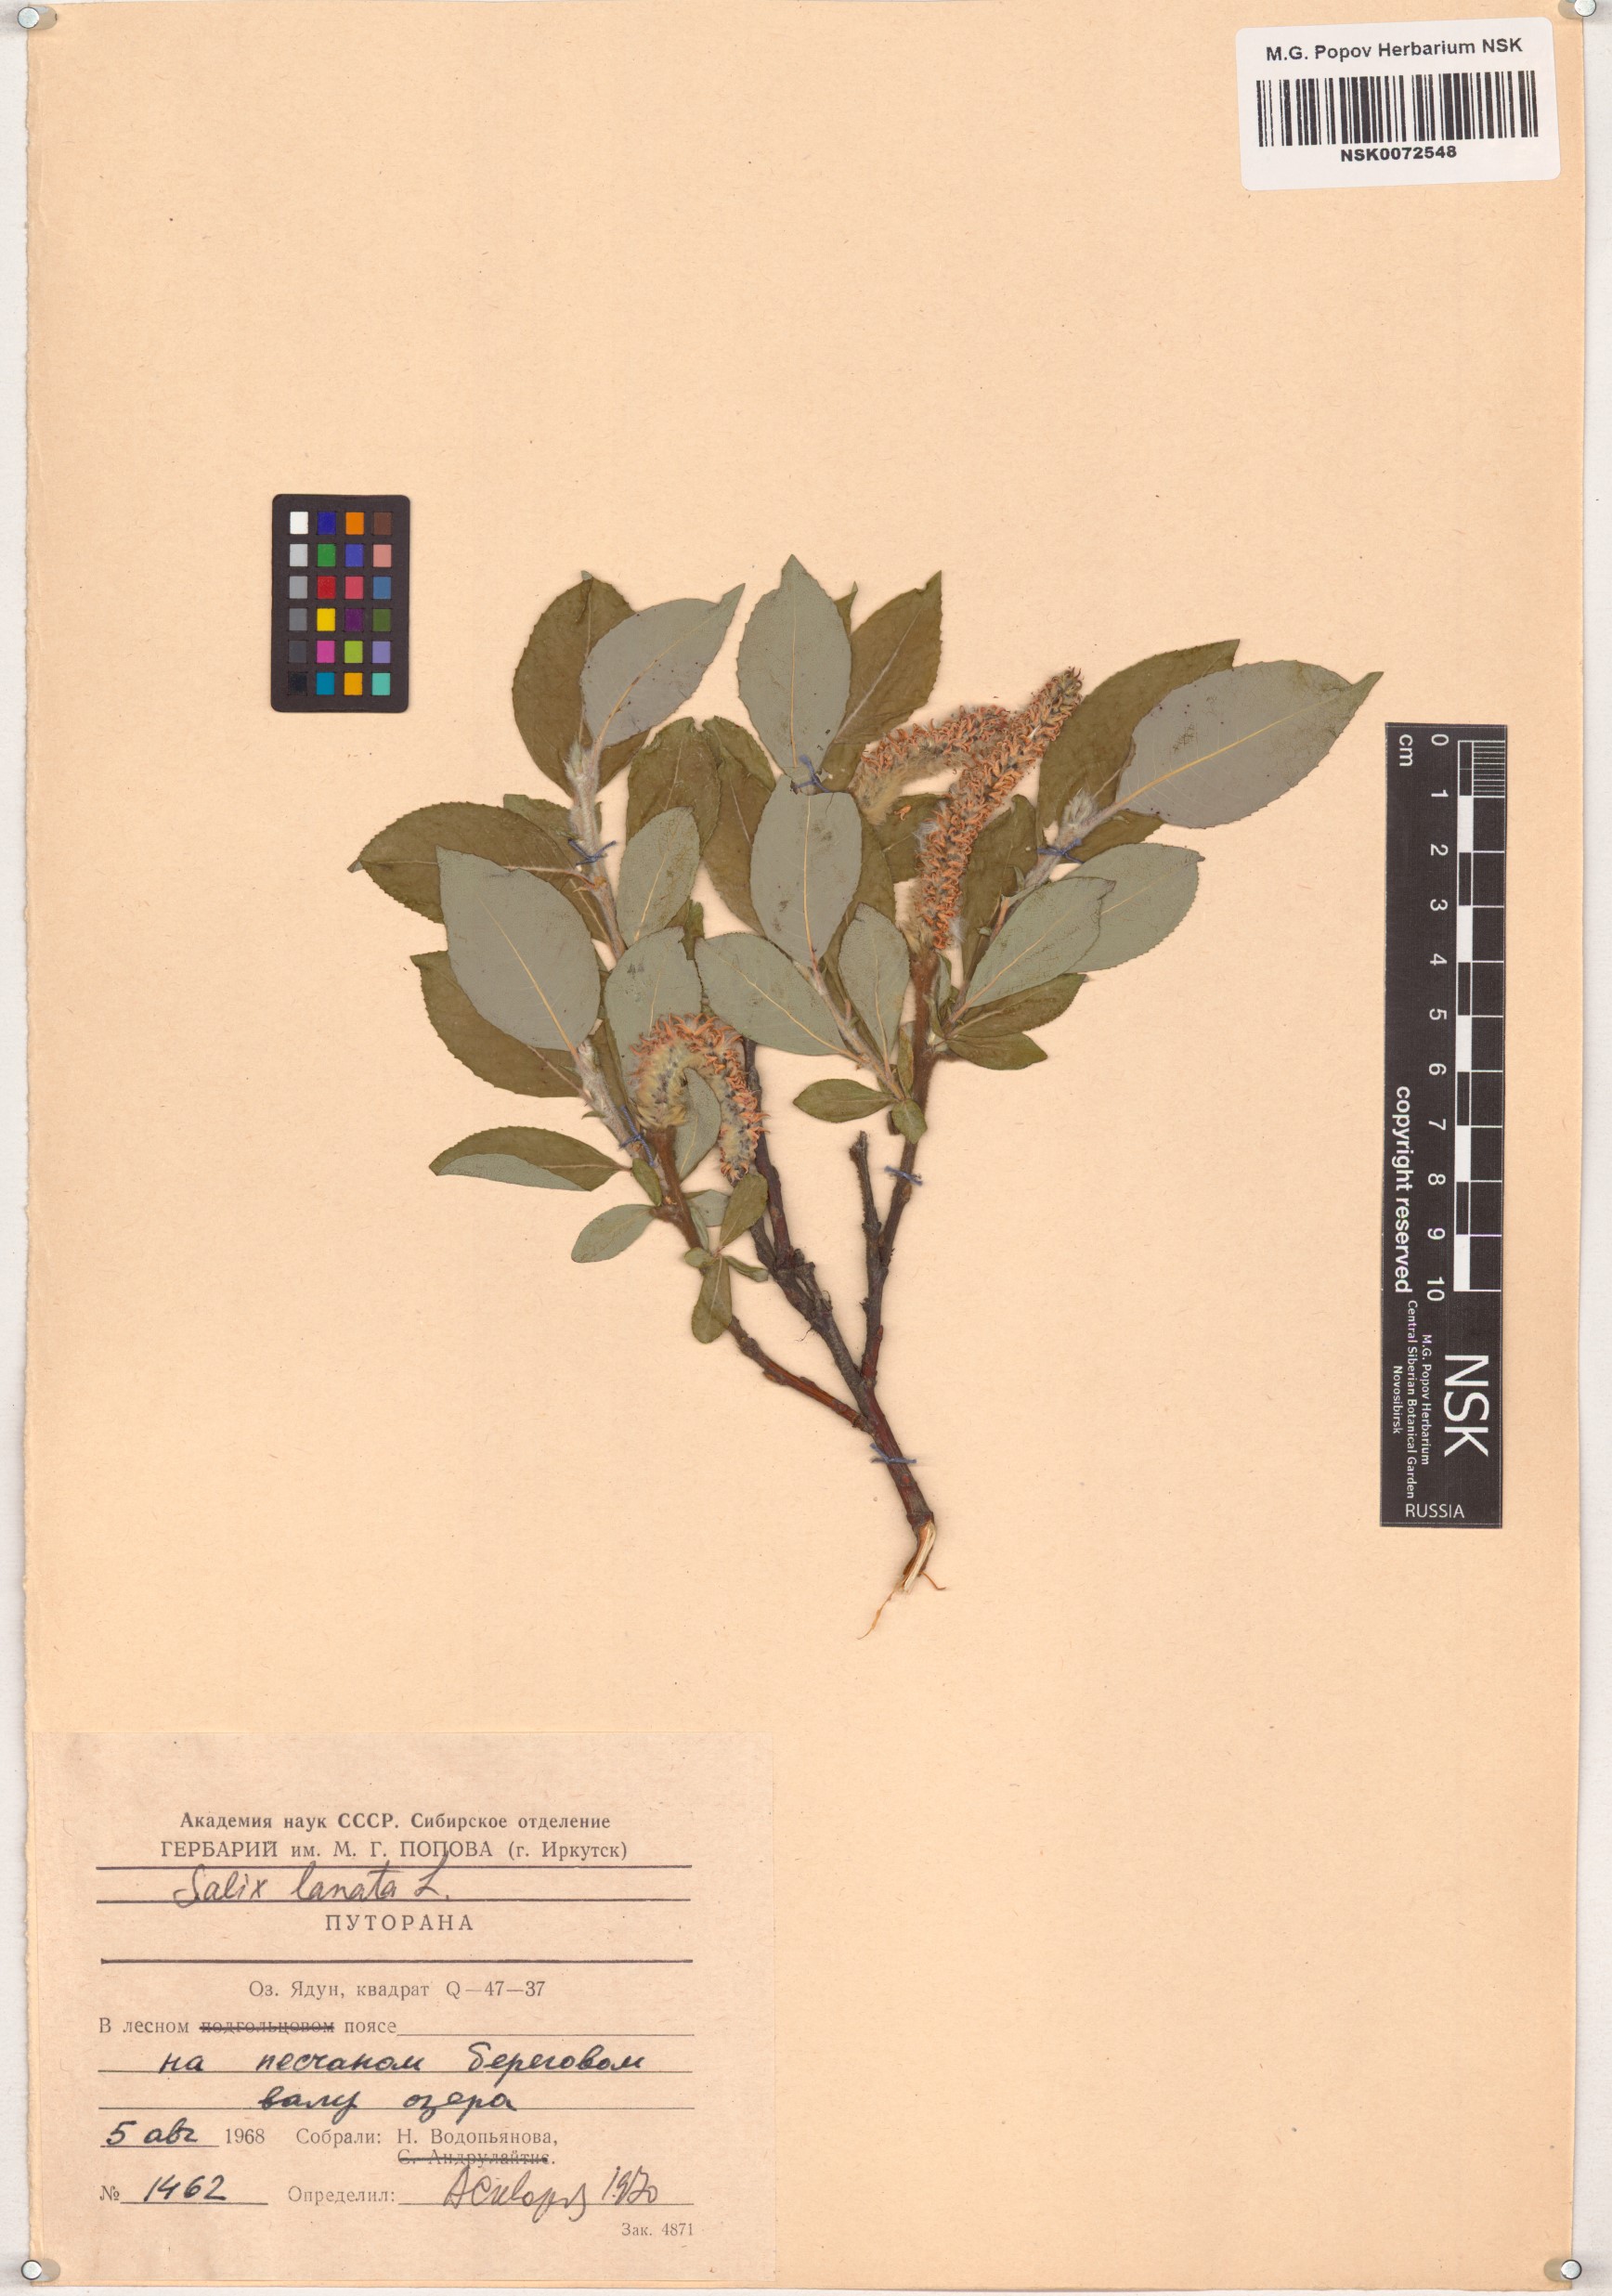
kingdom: Plantae
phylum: Tracheophyta
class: Magnoliopsida
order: Malpighiales
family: Salicaceae
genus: Salix
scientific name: Salix lanata
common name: Woolly willow
